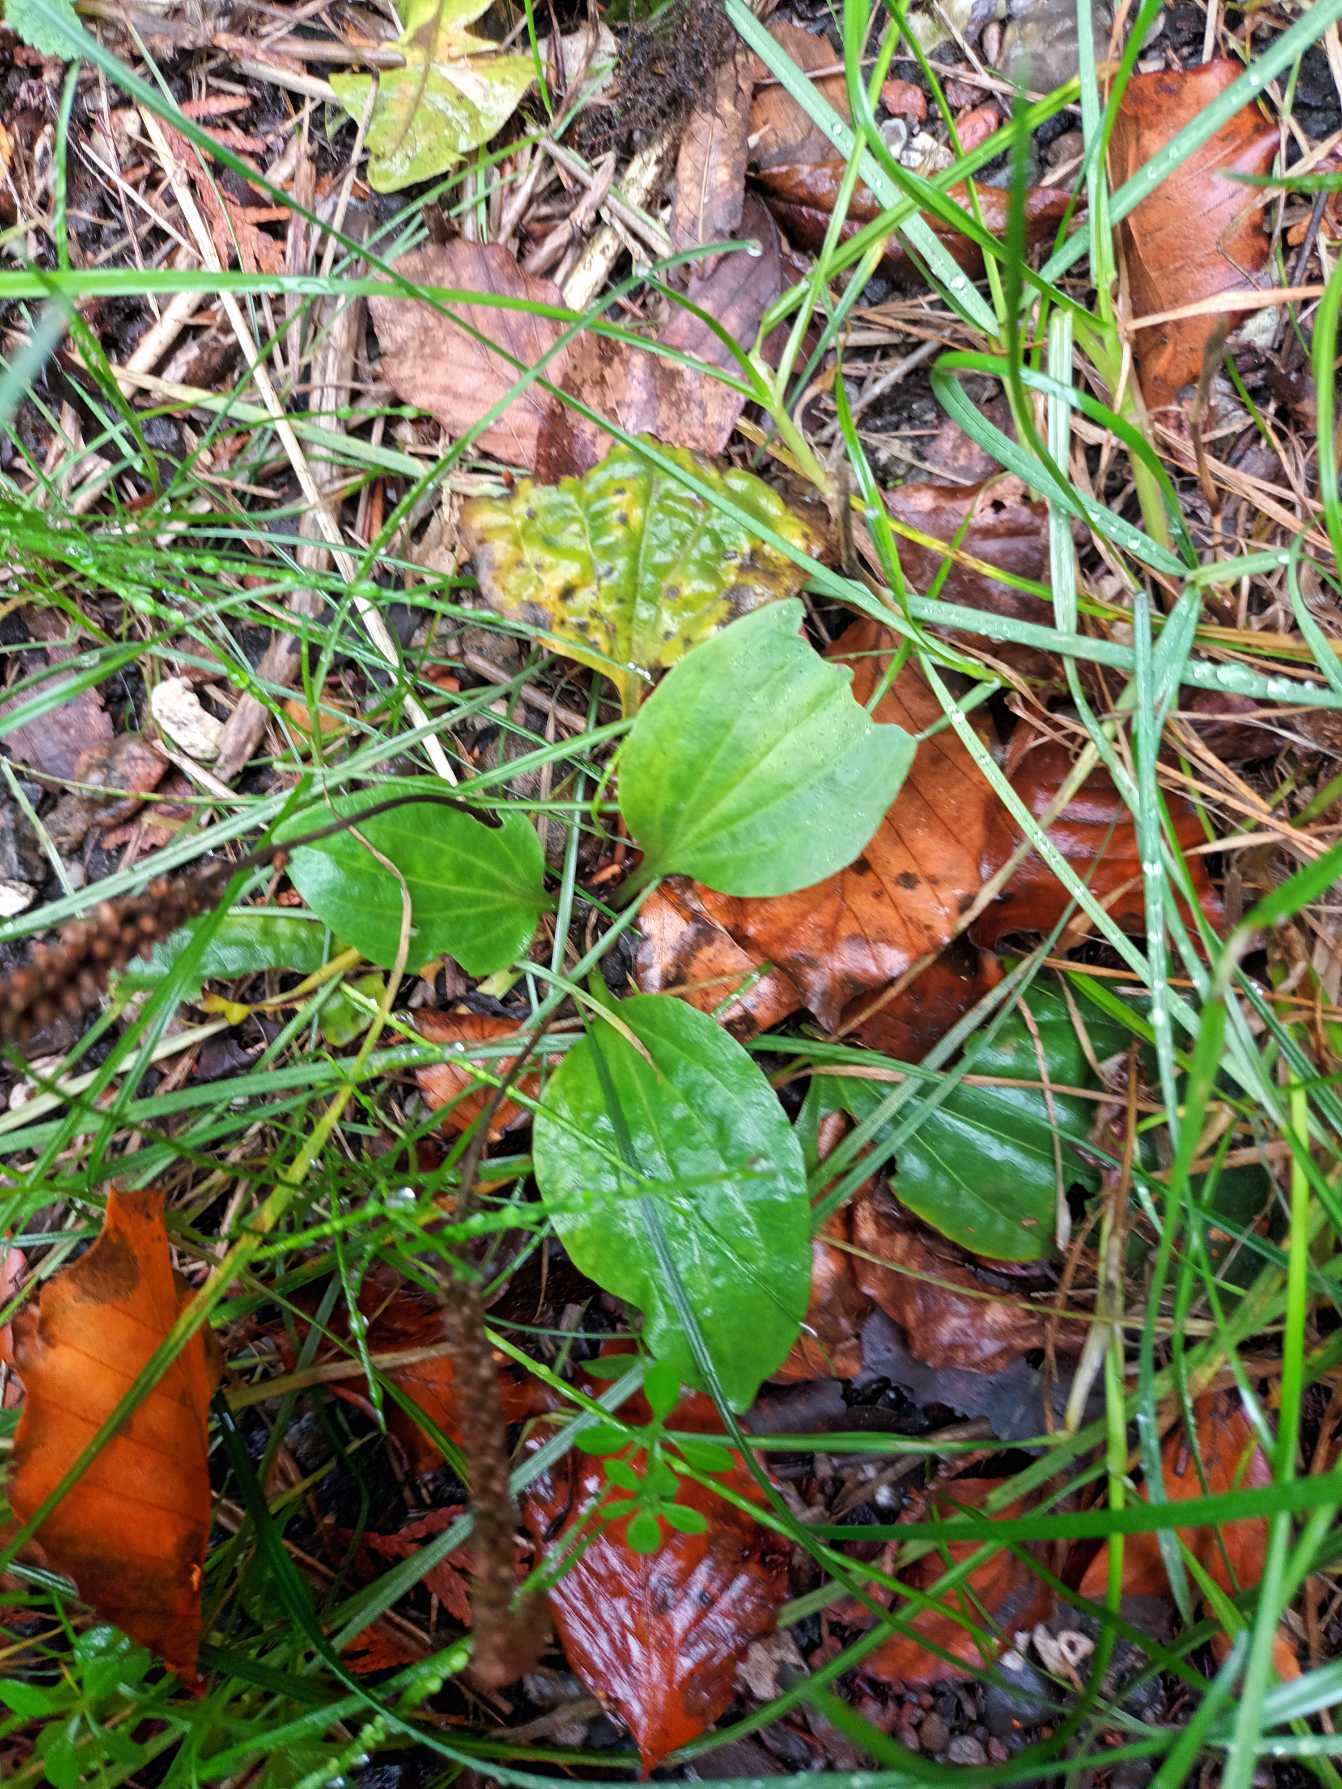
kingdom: Plantae
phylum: Tracheophyta
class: Magnoliopsida
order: Lamiales
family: Plantaginaceae
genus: Plantago
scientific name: Plantago major
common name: Glat vejbred
